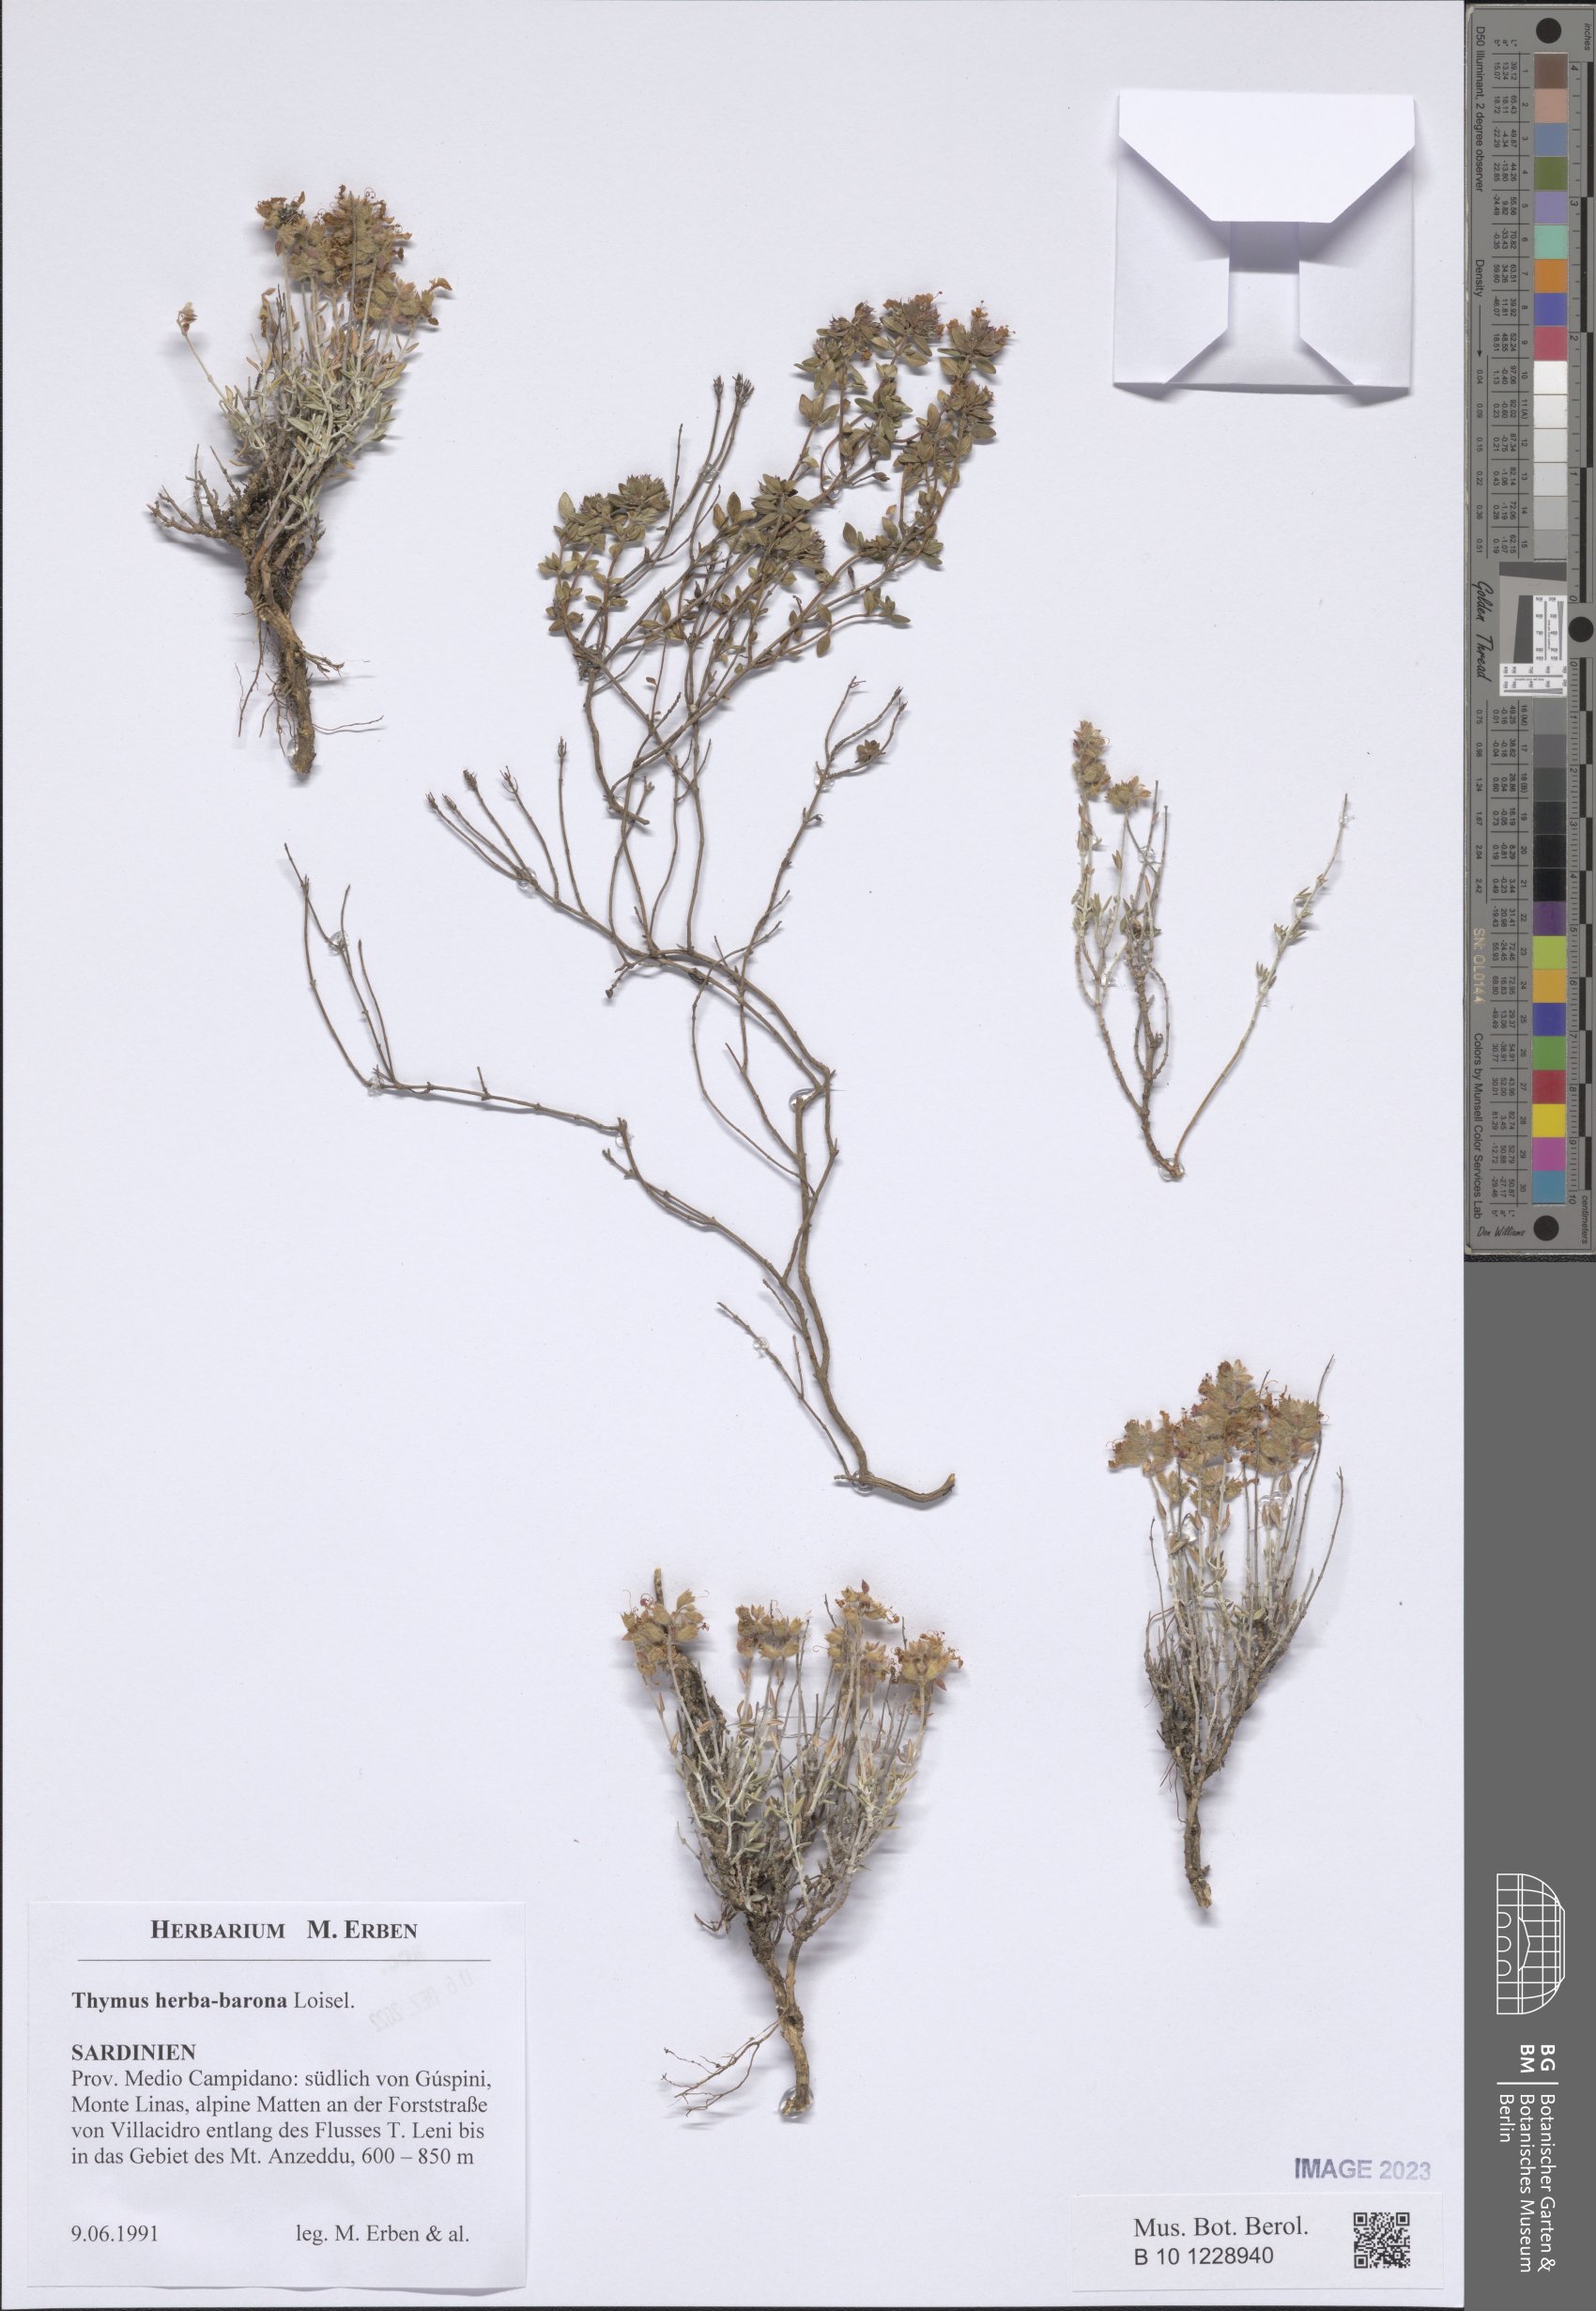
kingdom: Plantae
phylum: Tracheophyta
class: Magnoliopsida
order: Lamiales
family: Lamiaceae
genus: Thymus
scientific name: Thymus herba-barona
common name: Caraway thyme
